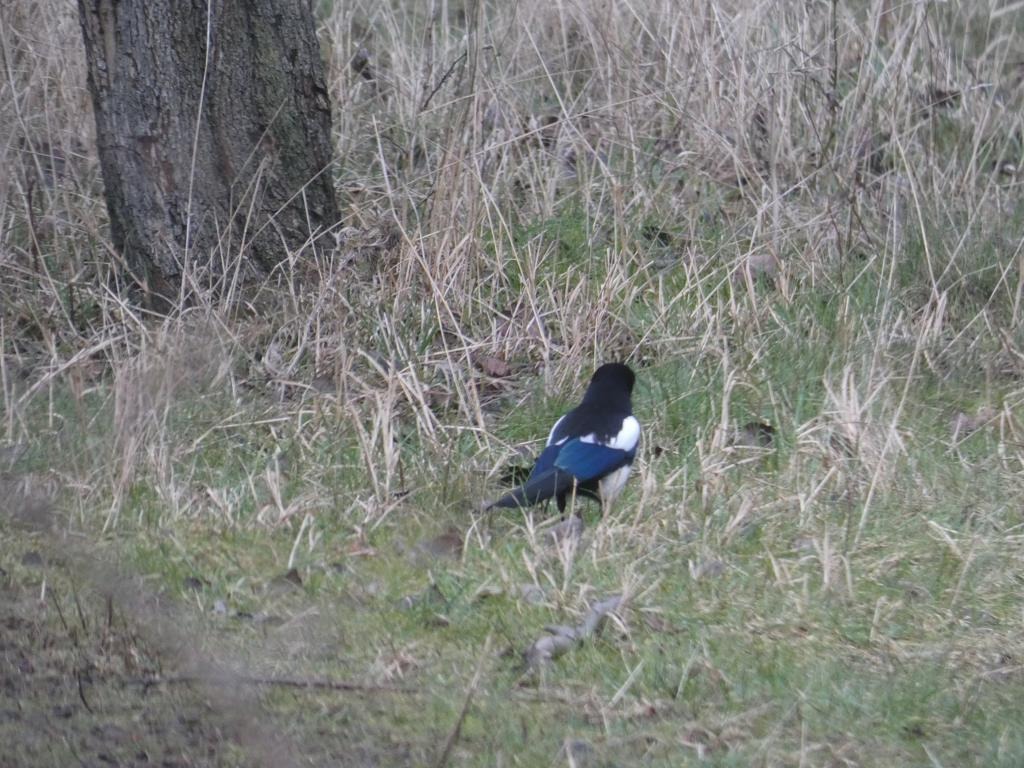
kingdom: Animalia
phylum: Chordata
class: Aves
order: Passeriformes
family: Corvidae
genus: Pica
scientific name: Pica pica
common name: Husskade
